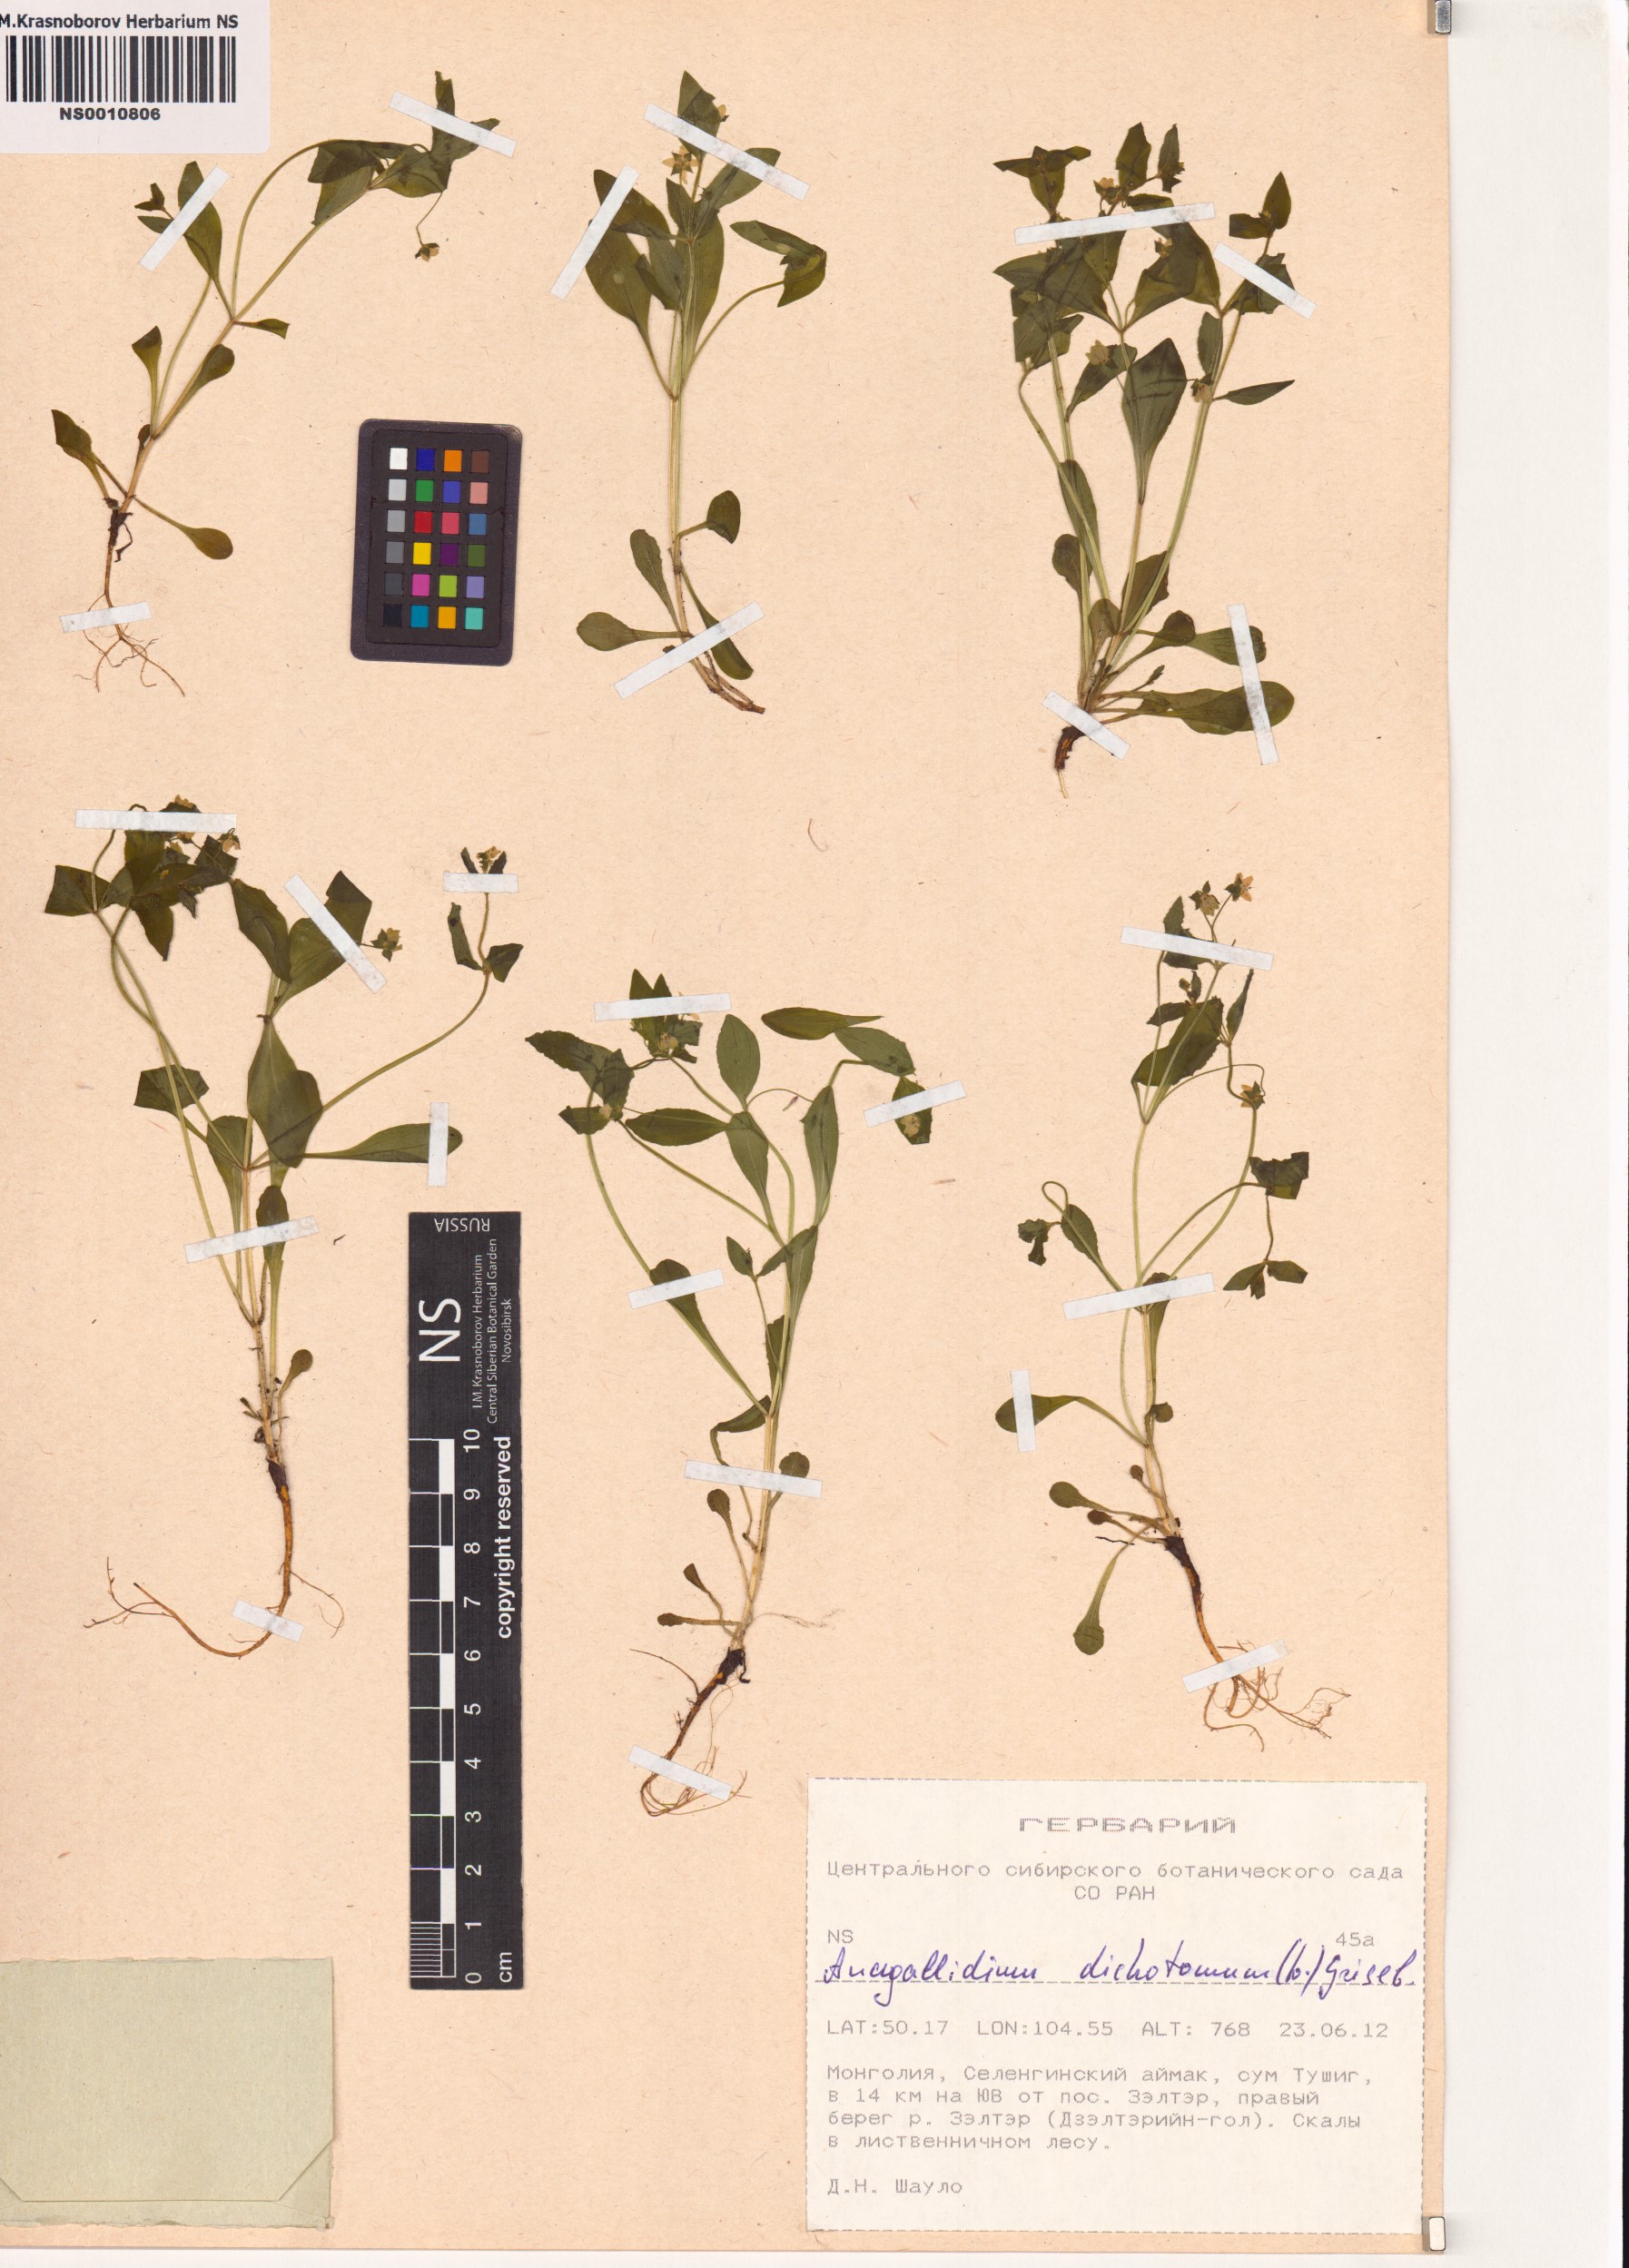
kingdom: Plantae
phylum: Tracheophyta
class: Magnoliopsida
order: Gentianales
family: Gentianaceae
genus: Swertia
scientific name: Swertia dichotoma
